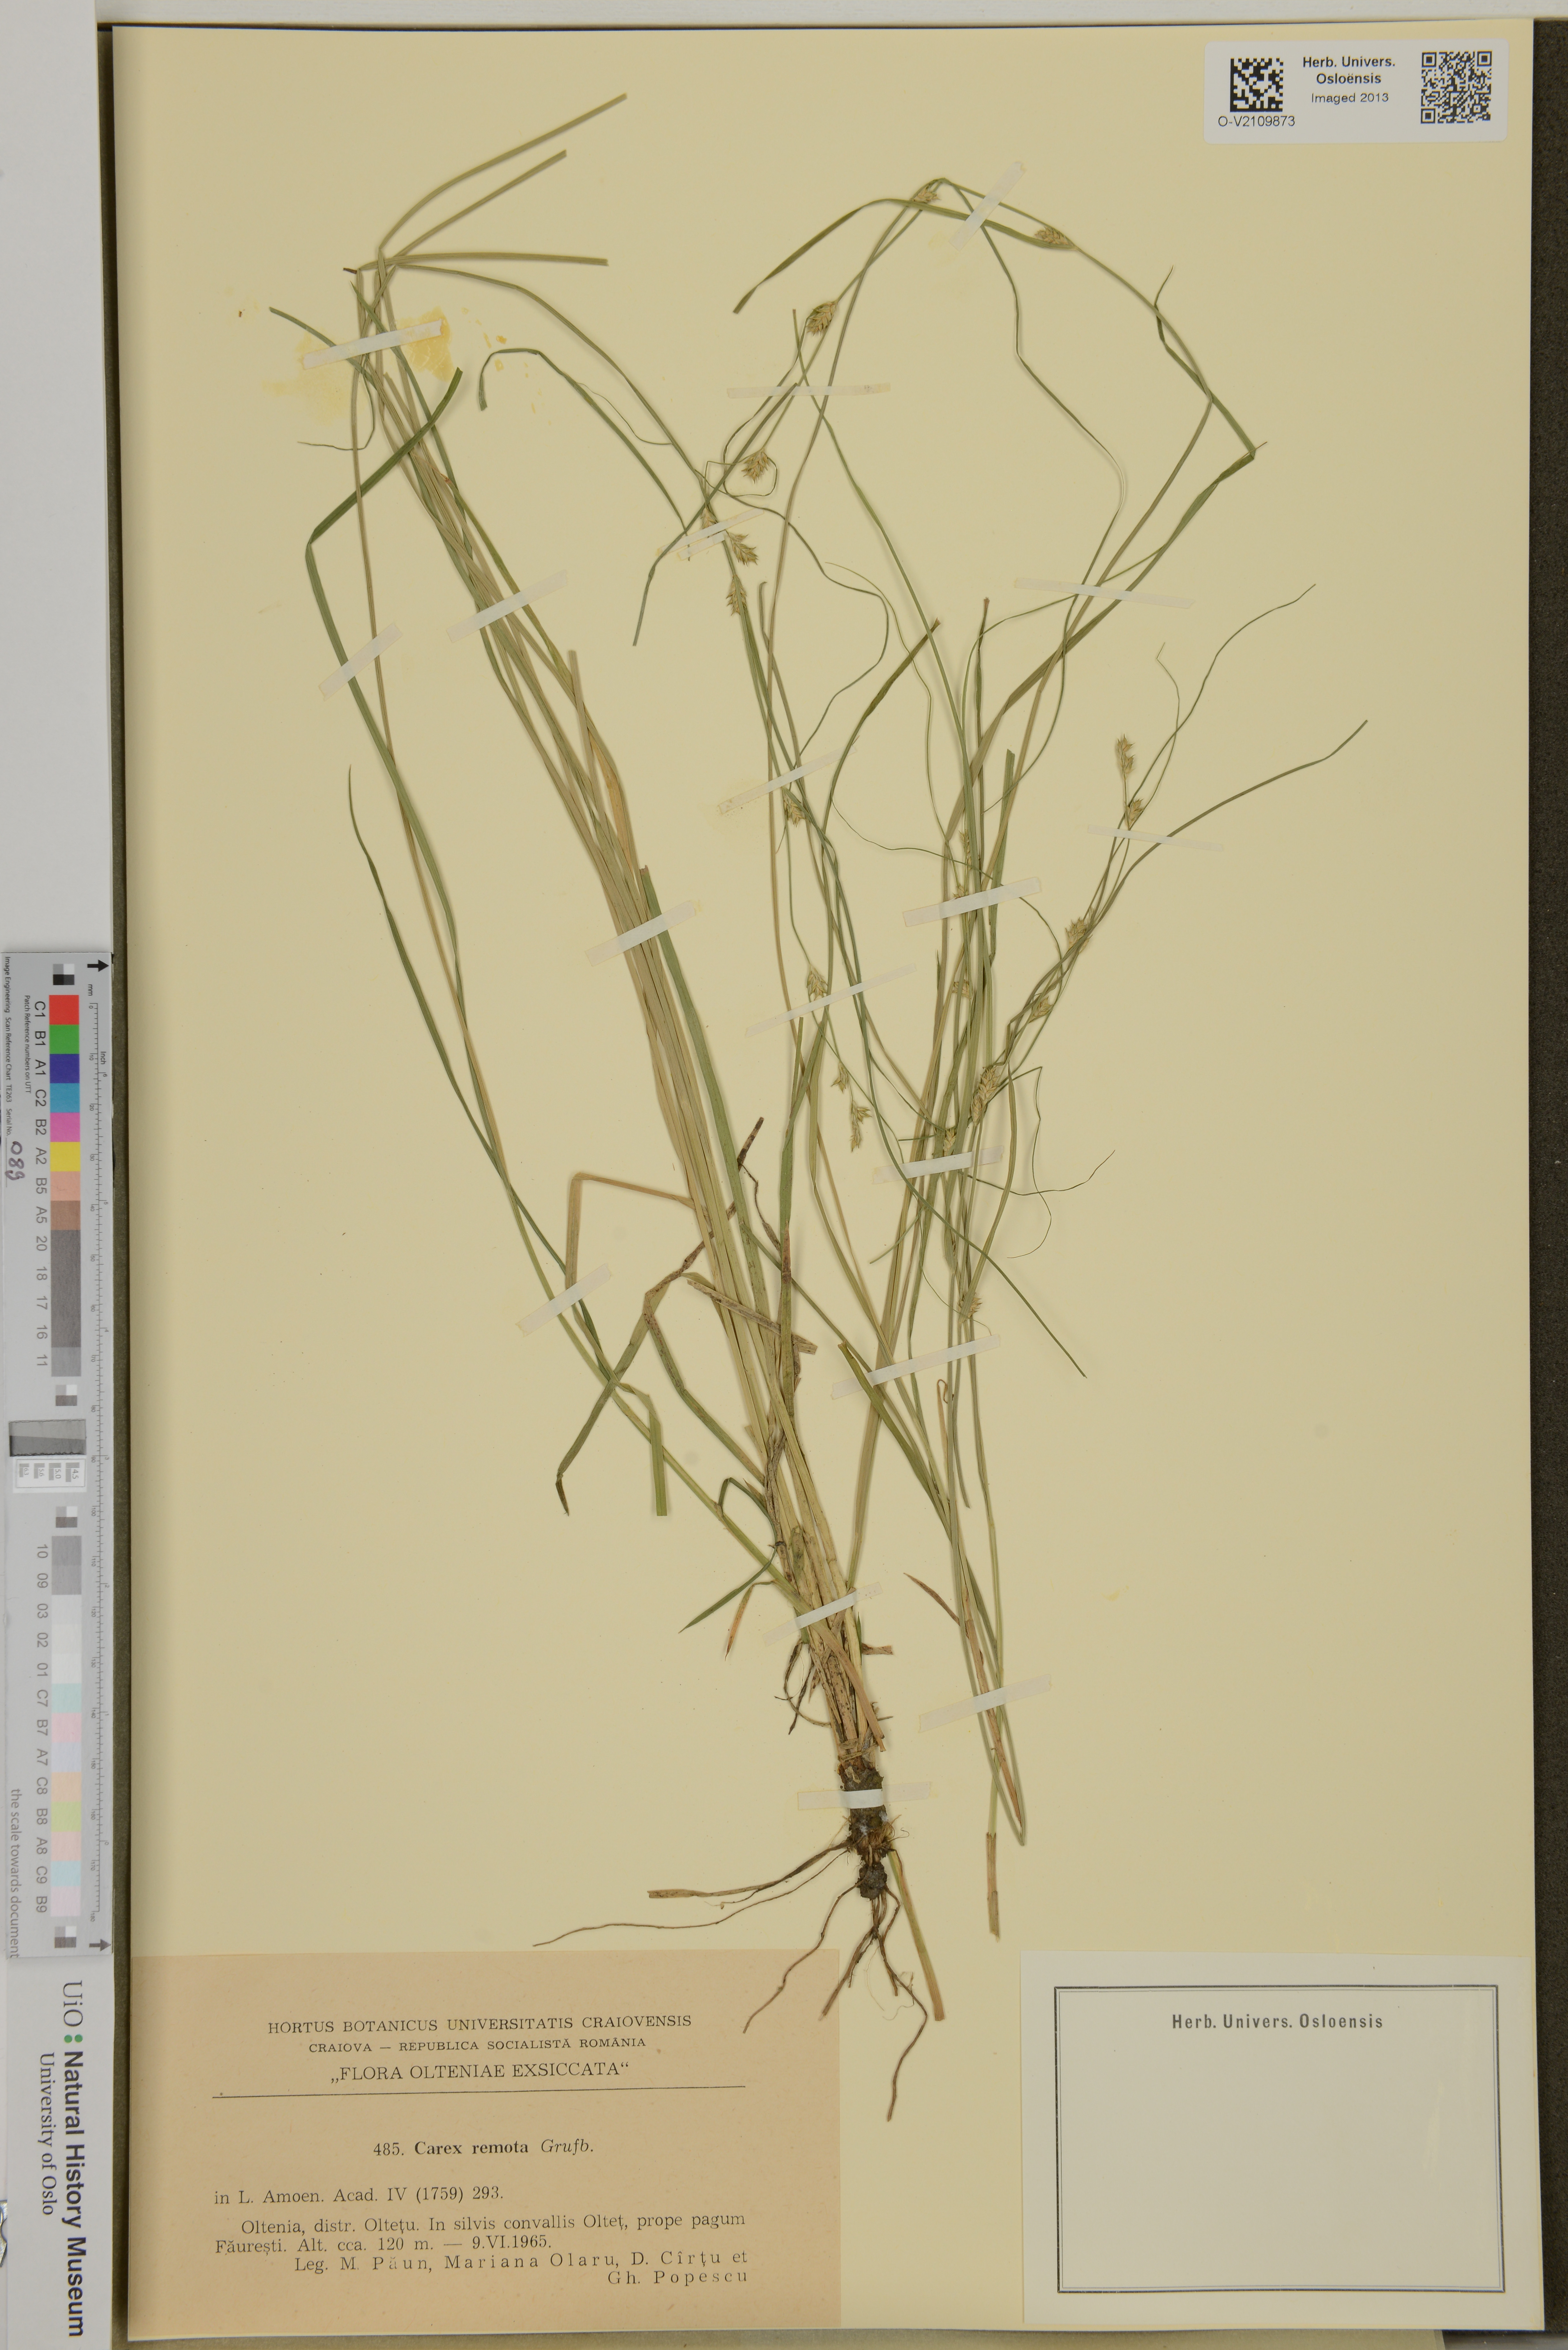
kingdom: Plantae
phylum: Tracheophyta
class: Liliopsida
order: Poales
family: Cyperaceae
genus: Carex
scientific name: Carex remota
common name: Remote sedge
